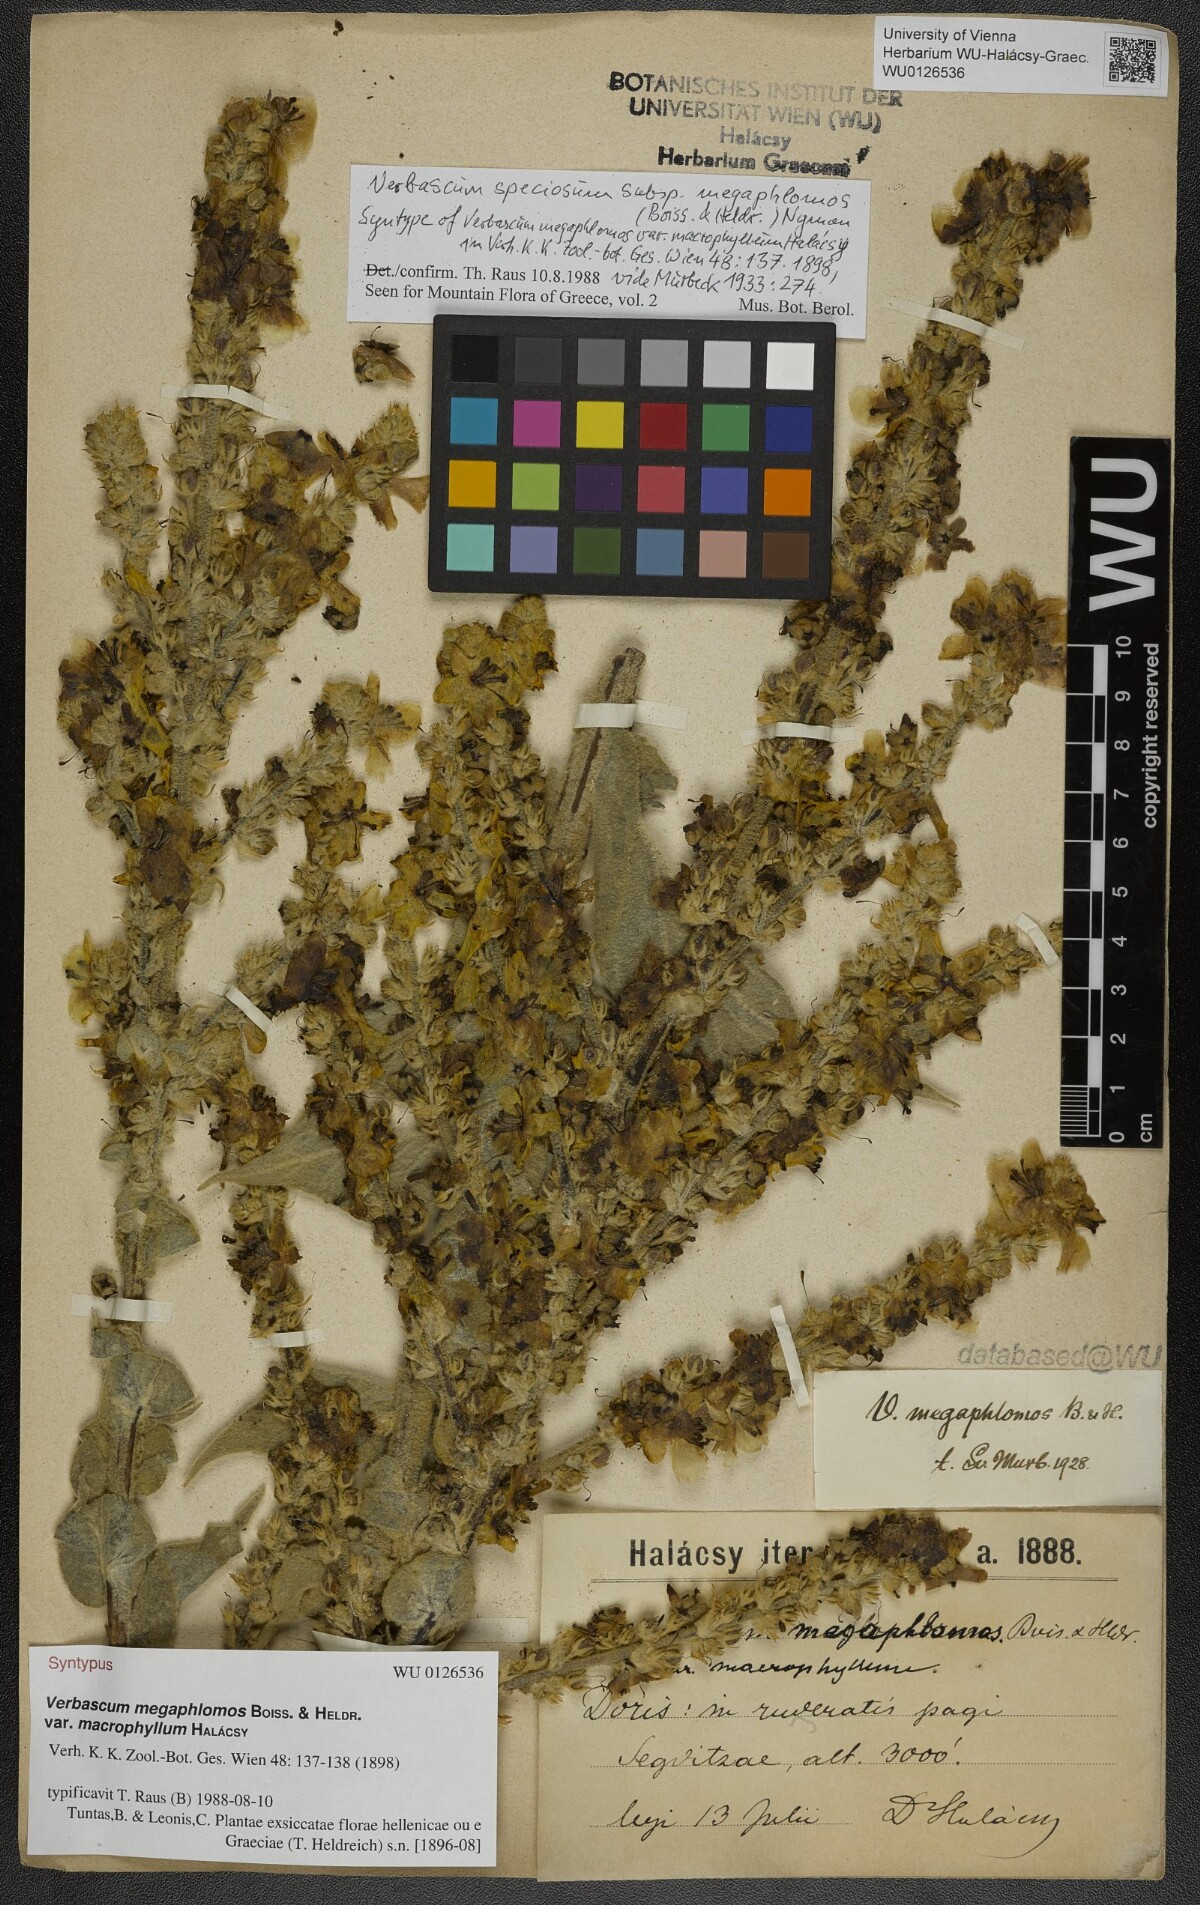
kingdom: Plantae
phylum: Tracheophyta
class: Magnoliopsida
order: Lamiales
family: Scrophulariaceae
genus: Verbascum
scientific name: Verbascum speciosum
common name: Hungarian mullein
